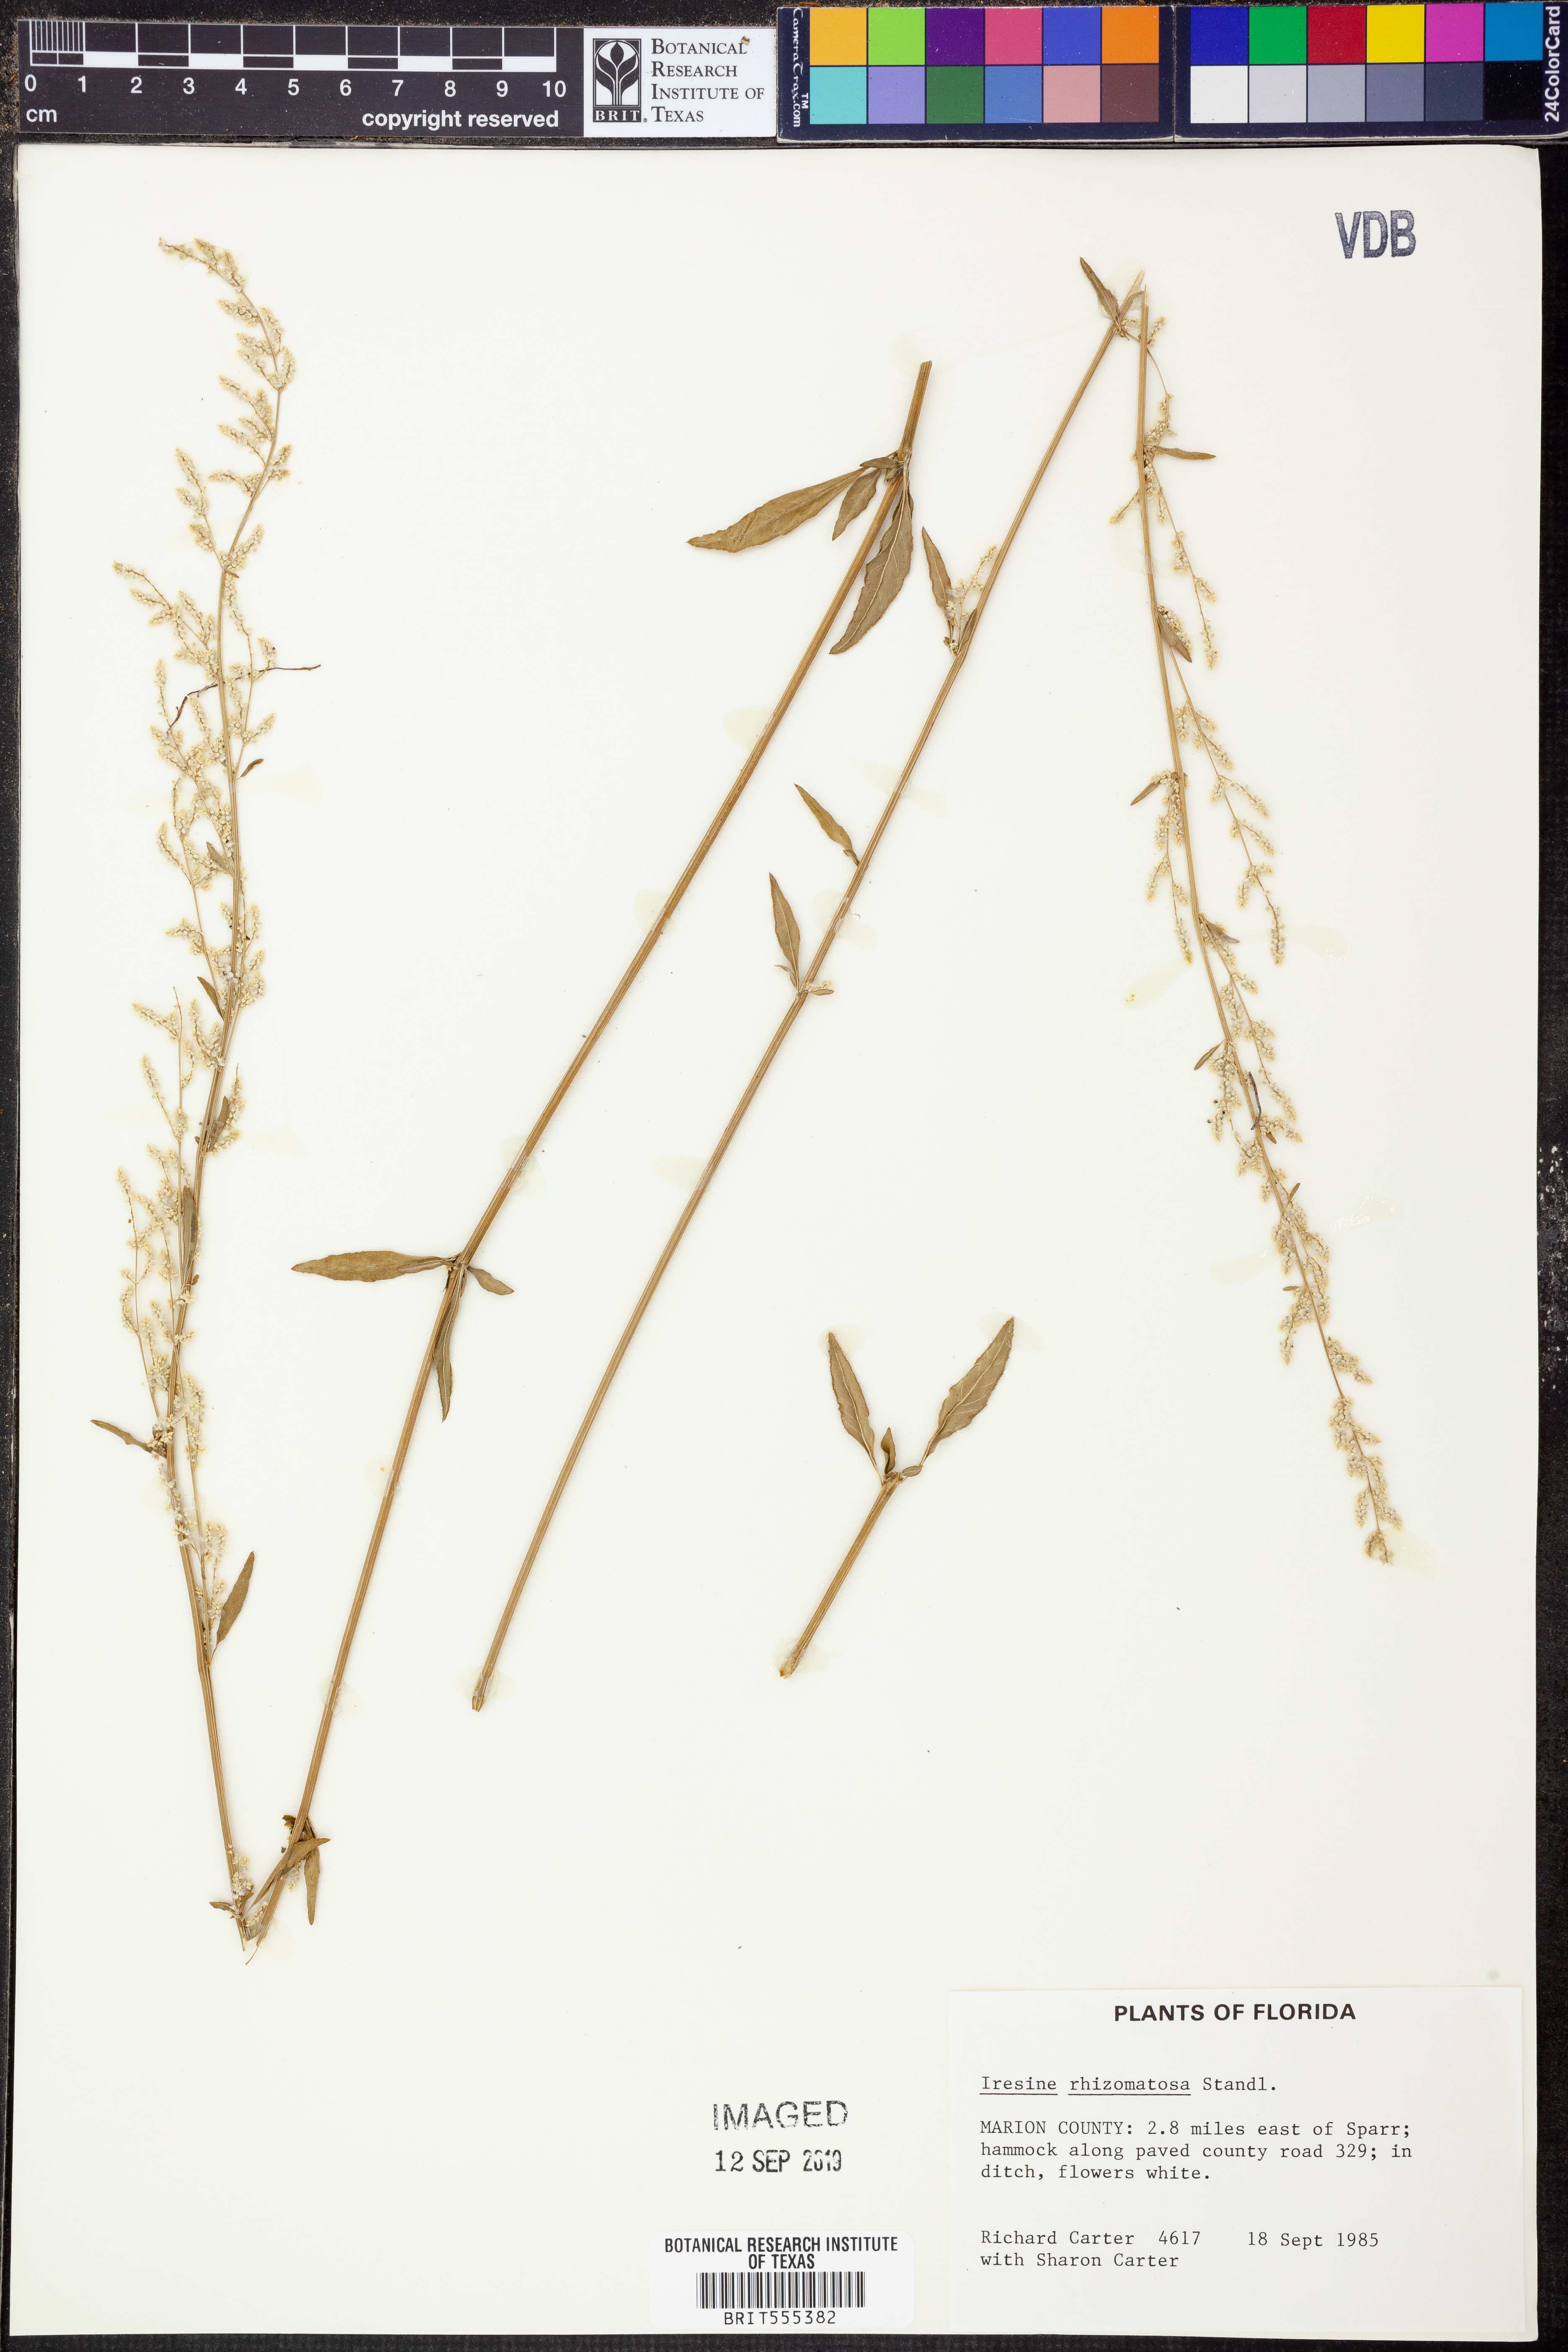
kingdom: Plantae
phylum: Tracheophyta
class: Magnoliopsida
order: Caryophyllales
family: Amaranthaceae
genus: Iresine
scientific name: Iresine rhizomatosa
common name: Juda's-bush
